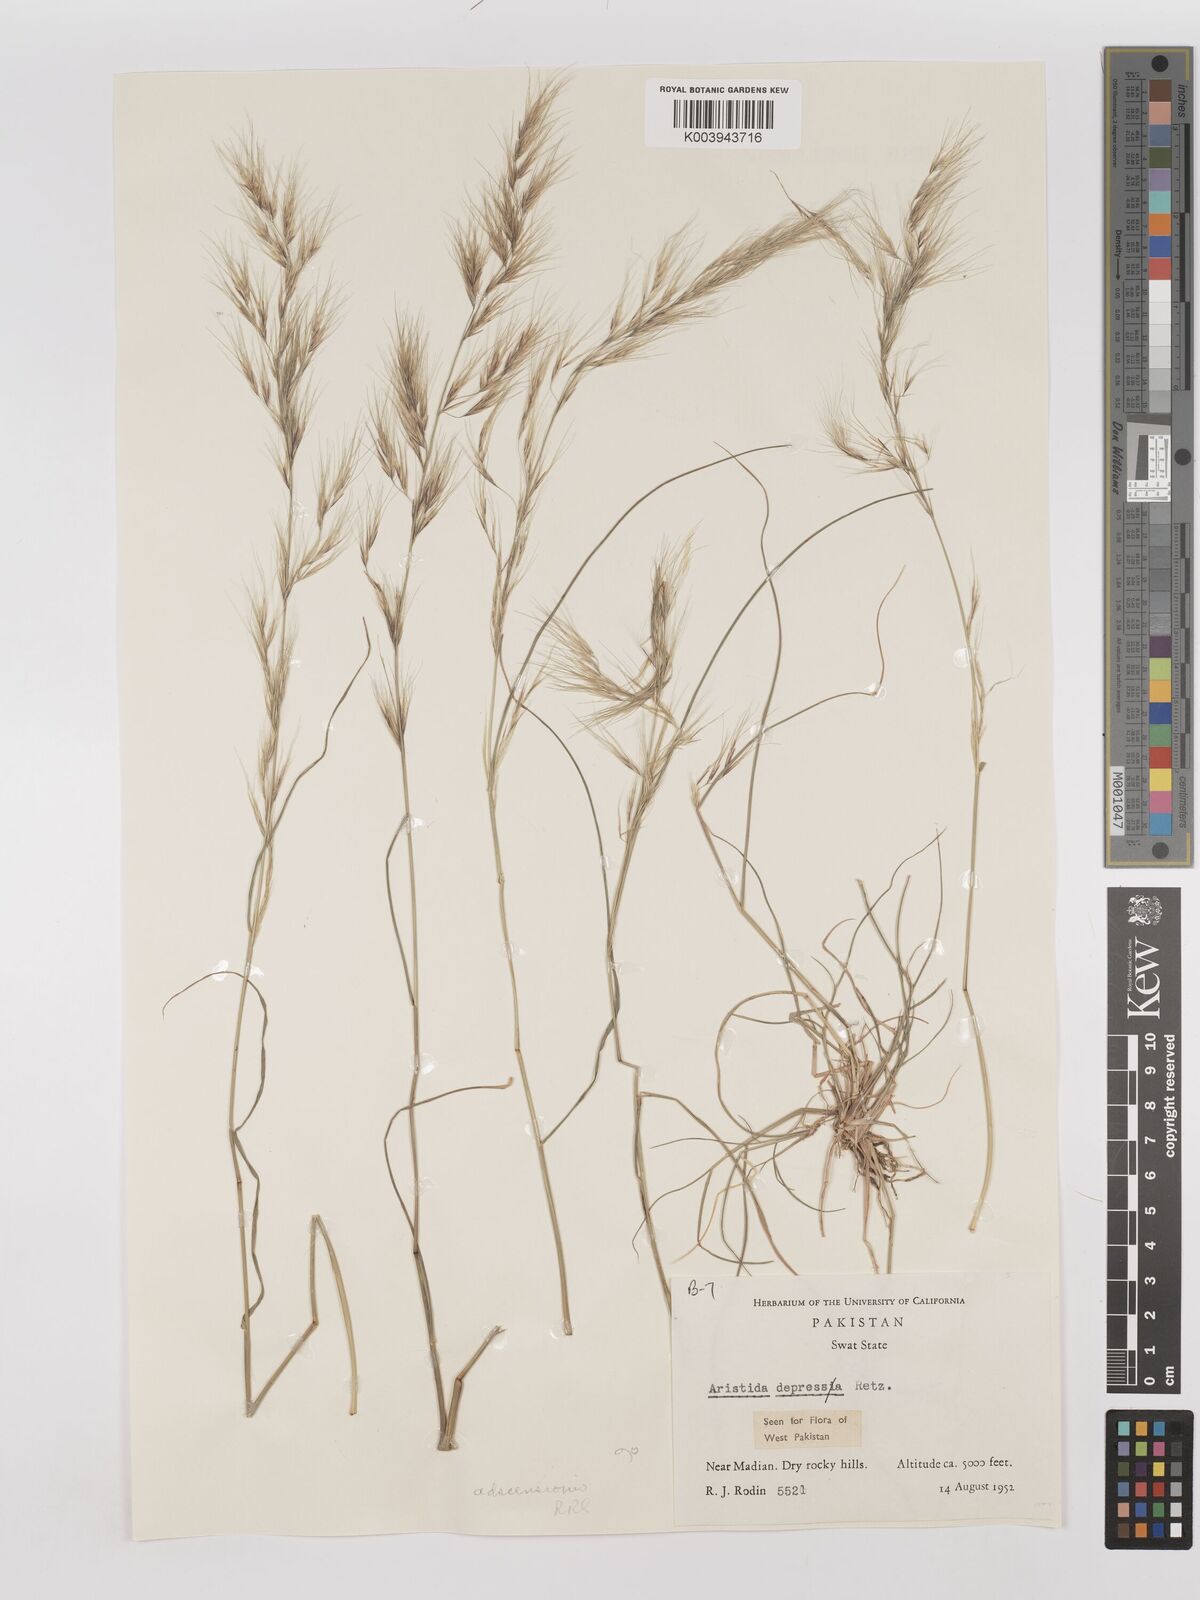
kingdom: Plantae
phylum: Tracheophyta
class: Liliopsida
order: Poales
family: Poaceae
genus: Aristida
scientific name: Aristida adscensionis
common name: Sixweeks threeawn
